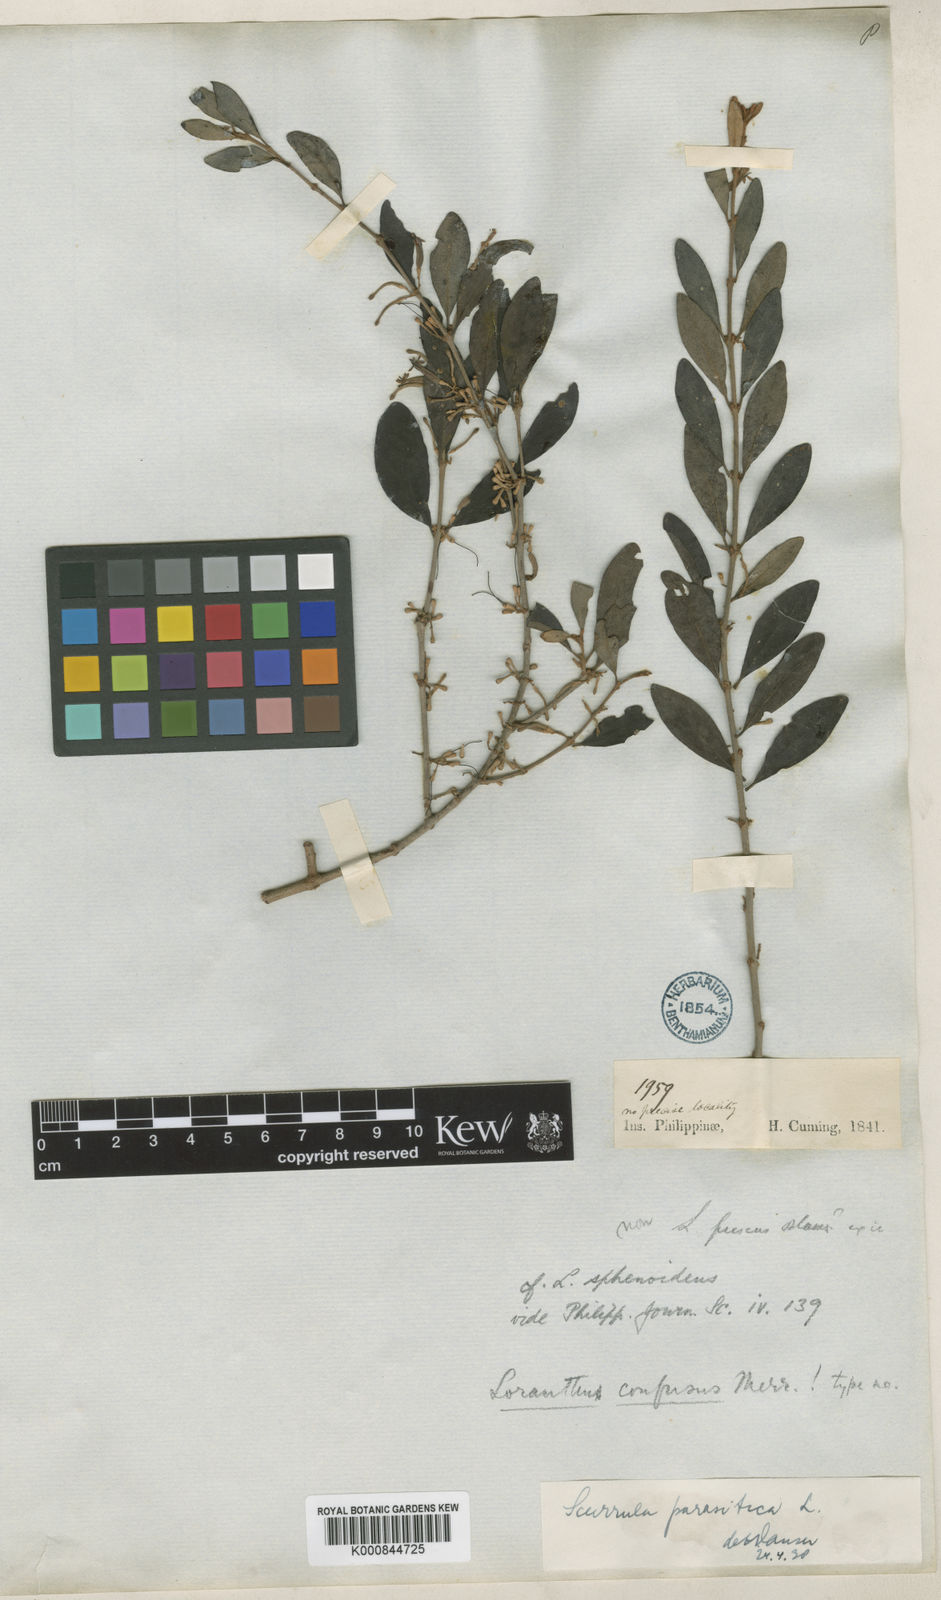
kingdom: Plantae
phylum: Tracheophyta
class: Magnoliopsida
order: Santalales
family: Loranthaceae
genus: Scurrula
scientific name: Scurrula parasitica
